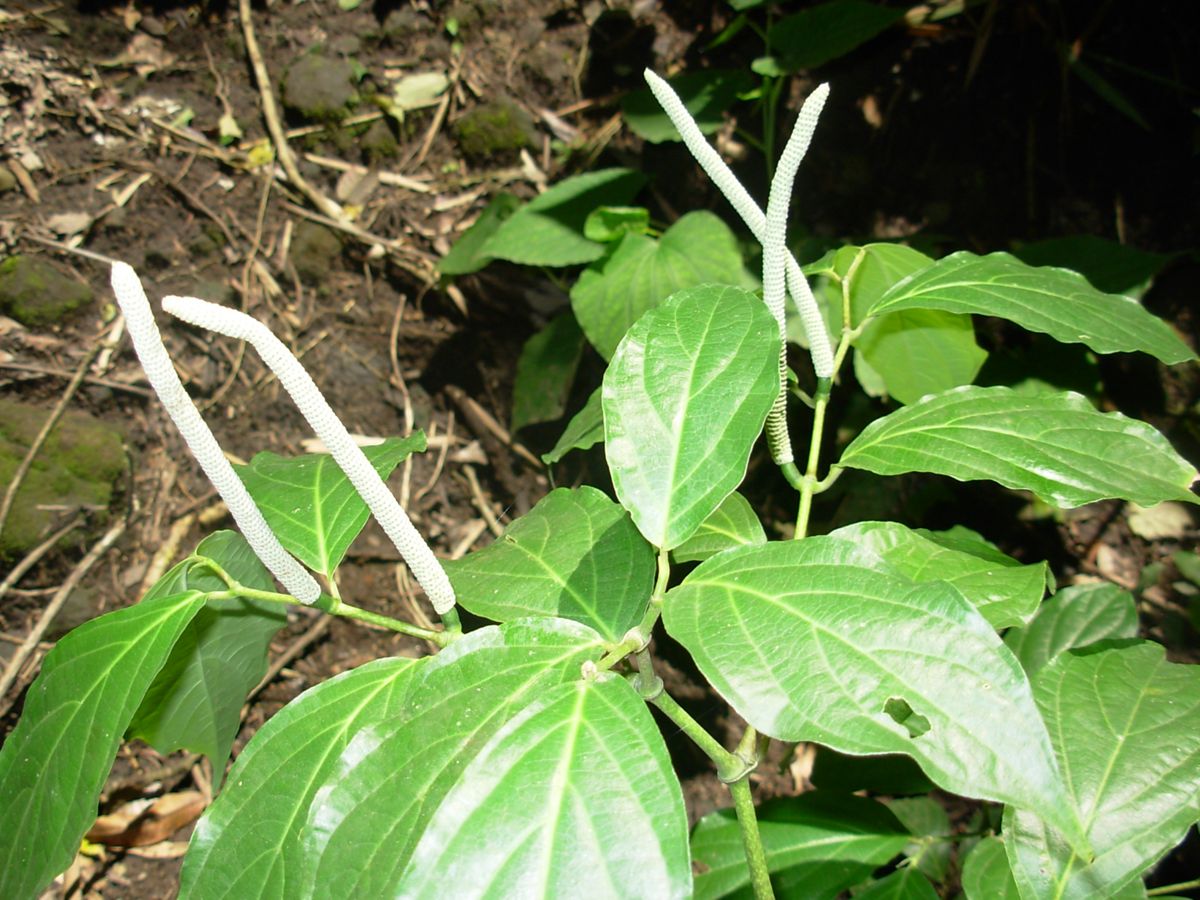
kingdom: Plantae
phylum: Tracheophyta
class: Magnoliopsida
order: Piperales
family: Piperaceae
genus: Piper
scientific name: Piper kerberi
